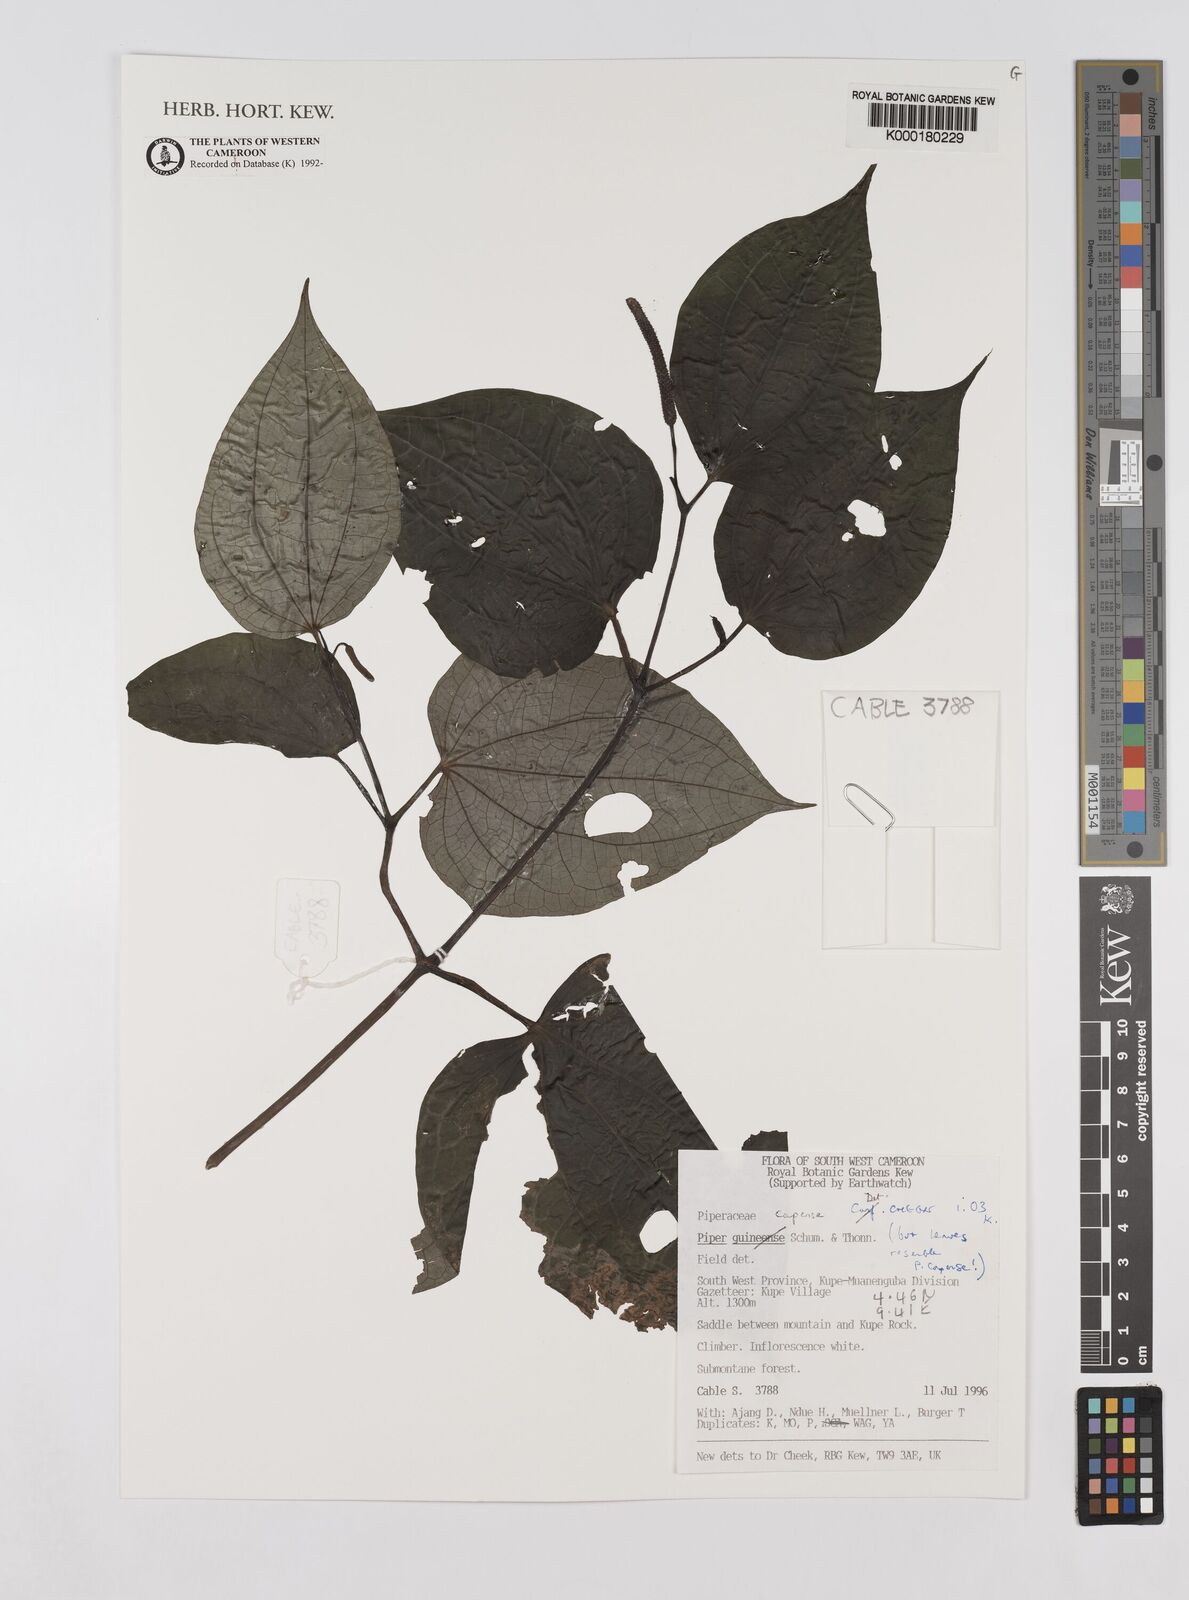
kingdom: Plantae
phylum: Tracheophyta
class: Magnoliopsida
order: Piperales
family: Piperaceae
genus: Piper
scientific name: Piper capense
